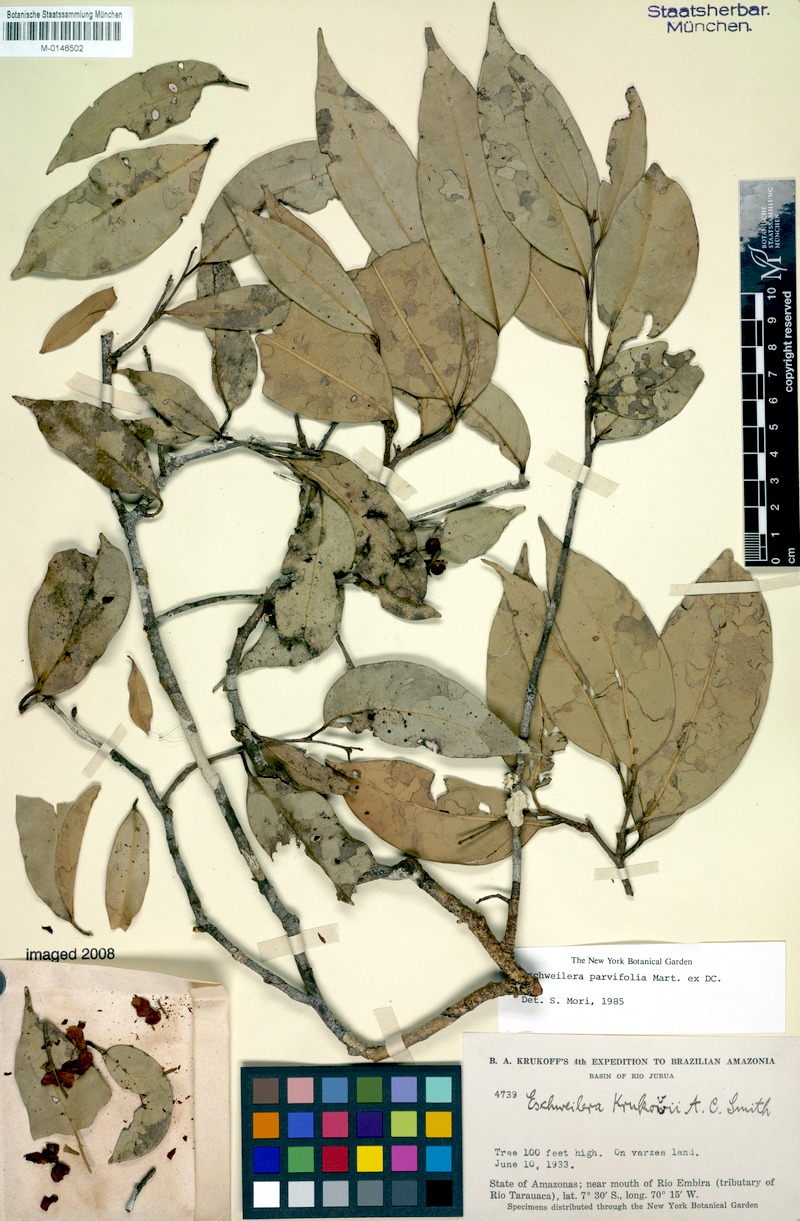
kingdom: Plantae
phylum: Tracheophyta
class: Magnoliopsida
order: Ericales
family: Lecythidaceae
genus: Eschweilera
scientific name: Eschweilera parvifolia
